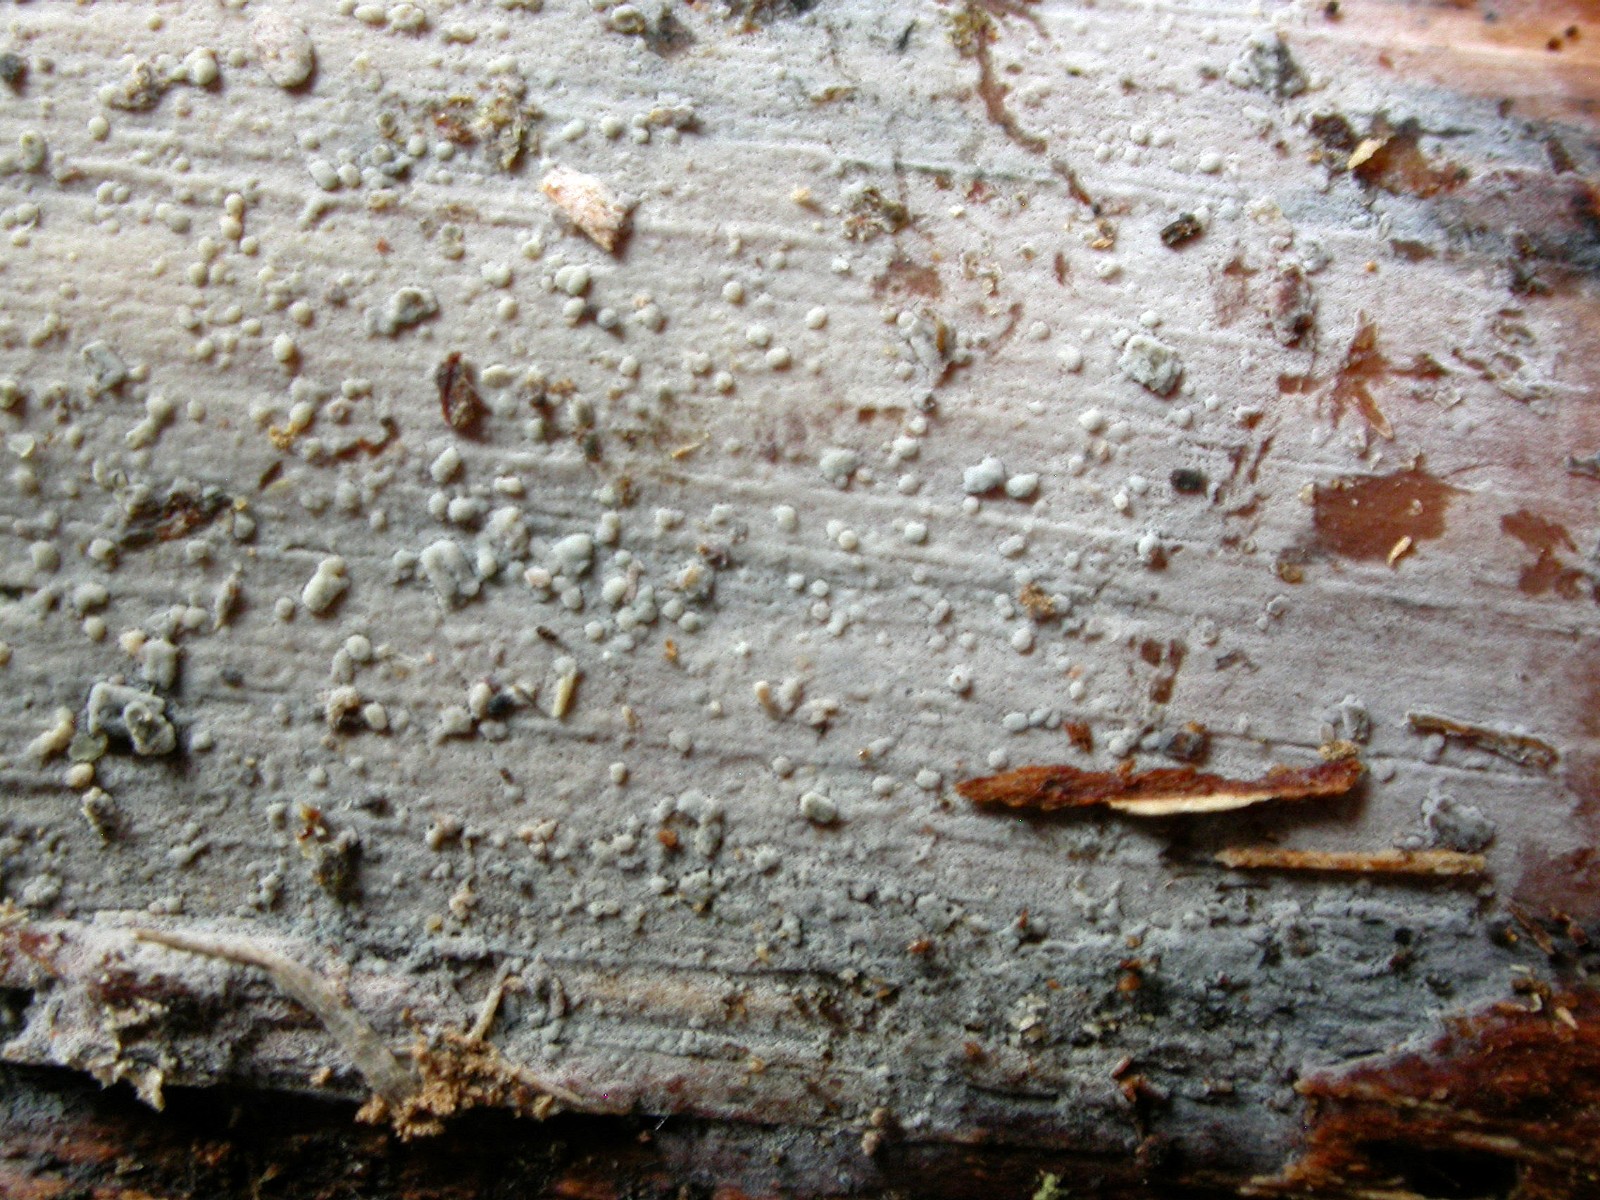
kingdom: Fungi
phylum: Basidiomycota
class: Agaricomycetes
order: Russulales
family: Xenasmataceae
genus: Xenasma
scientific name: Xenasma tulasnelloideum
